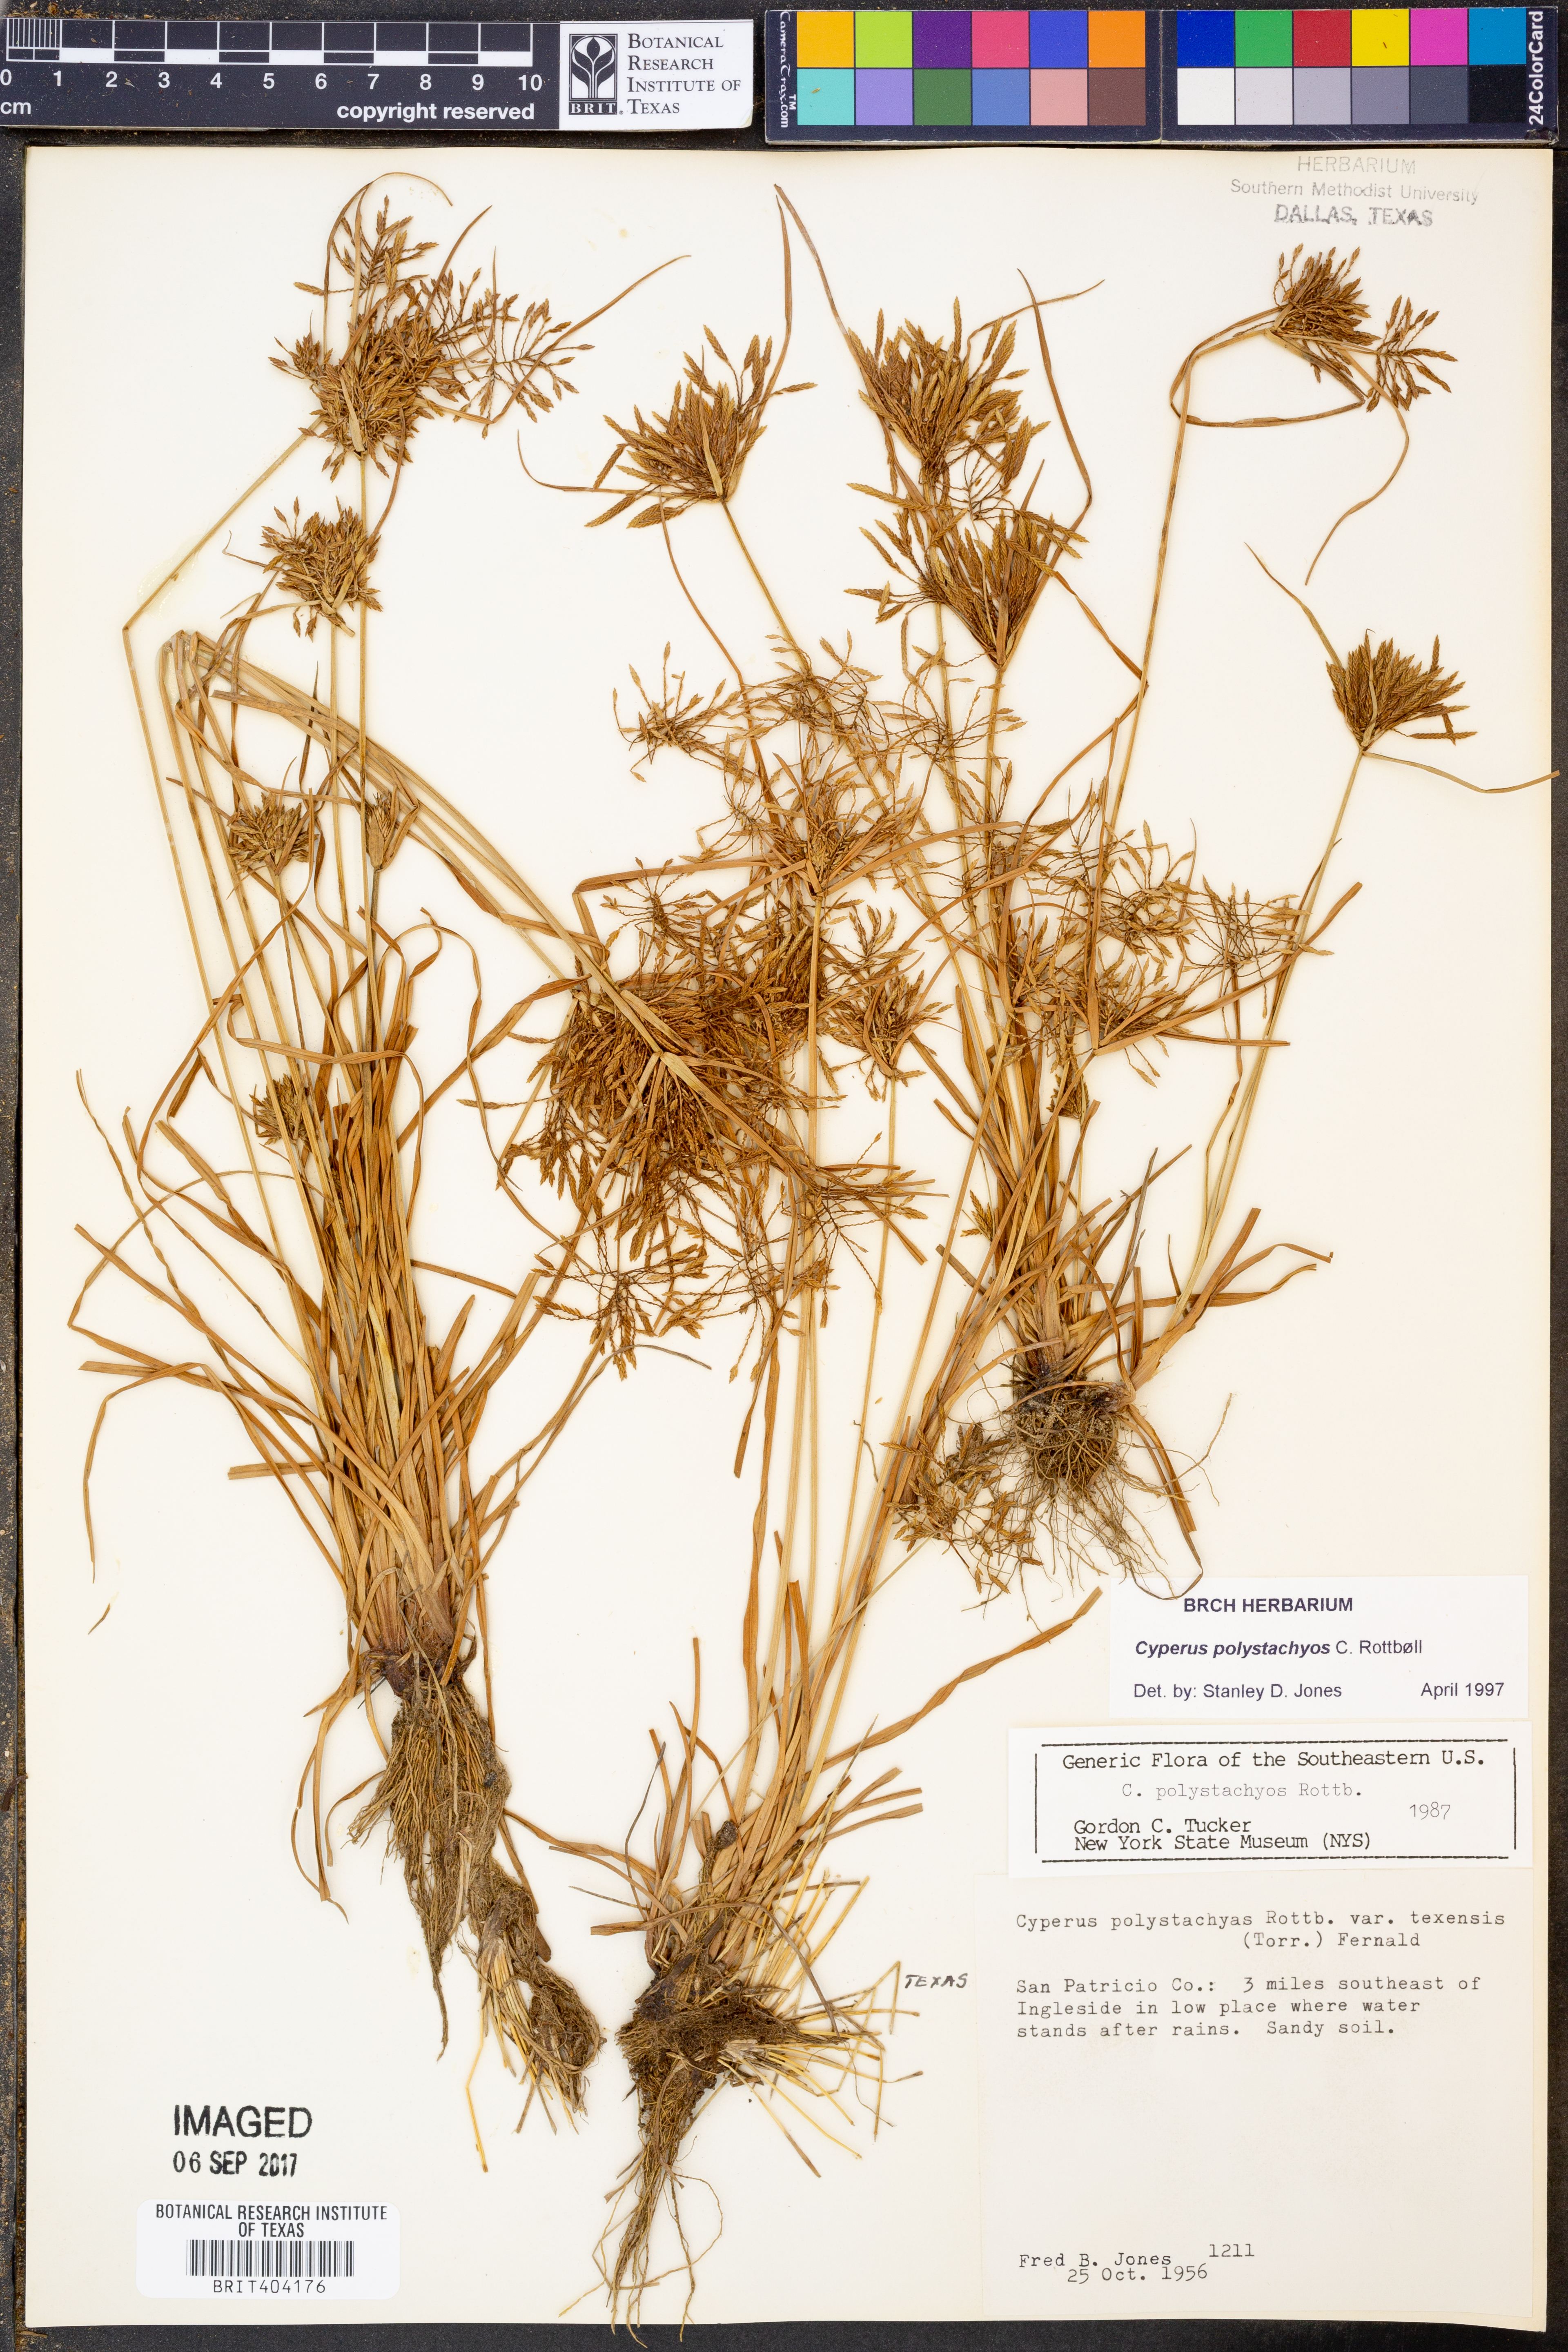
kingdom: Plantae
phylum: Tracheophyta
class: Liliopsida
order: Poales
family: Cyperaceae
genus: Cyperus
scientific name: Cyperus polystachyos
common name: Bunchy flat sedge
